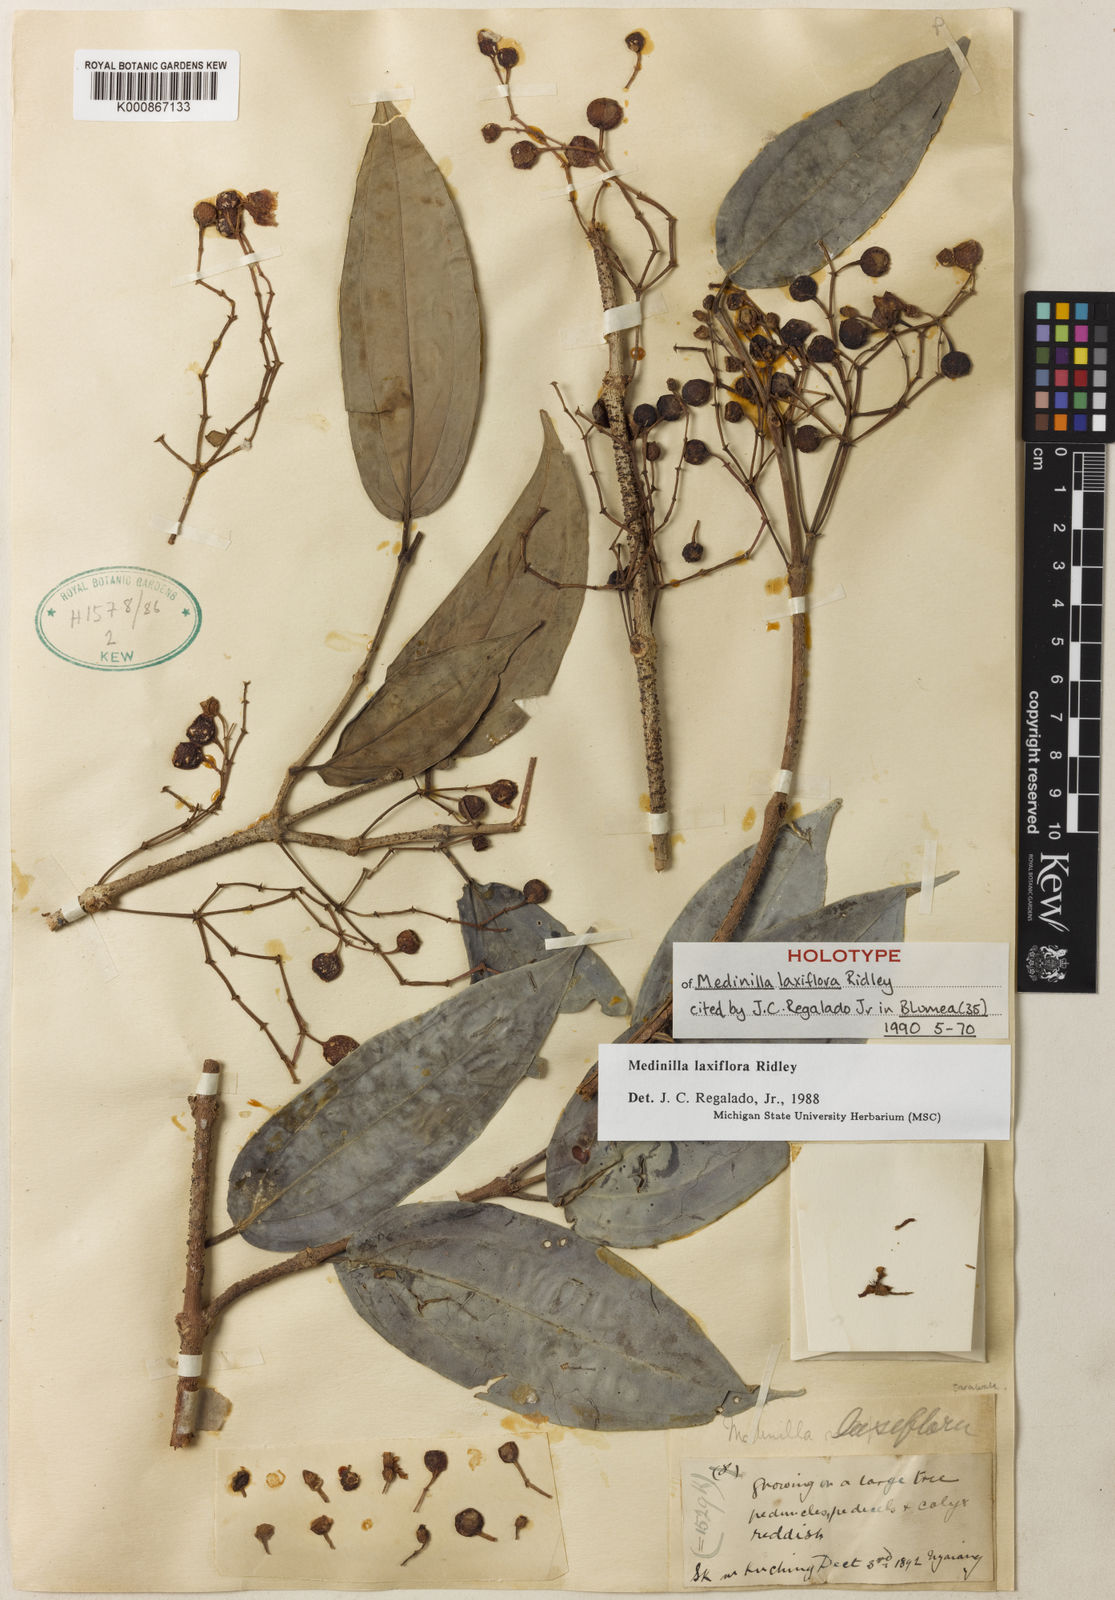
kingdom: Plantae
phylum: Tracheophyta
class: Magnoliopsida
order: Myrtales
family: Melastomataceae
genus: Medinilla
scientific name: Medinilla laxiflora
